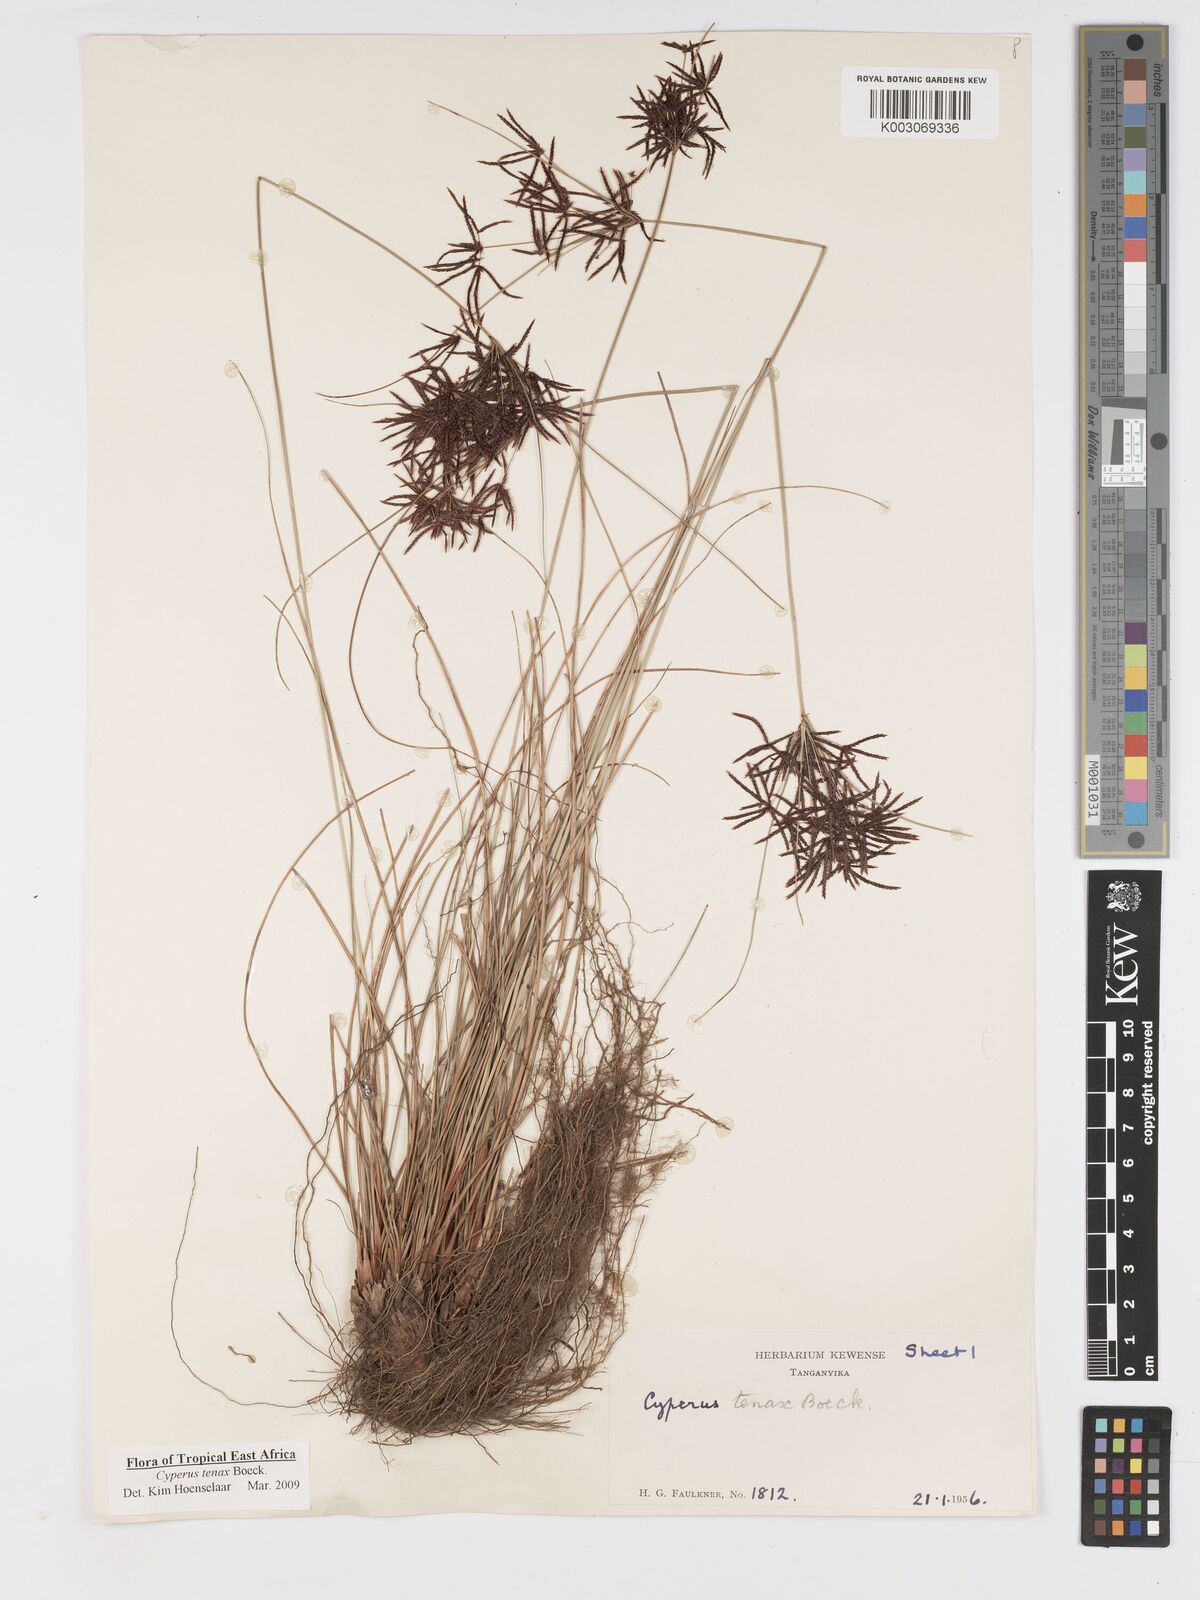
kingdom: Plantae
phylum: Tracheophyta
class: Liliopsida
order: Poales
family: Cyperaceae
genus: Cyperus
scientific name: Cyperus tenax
